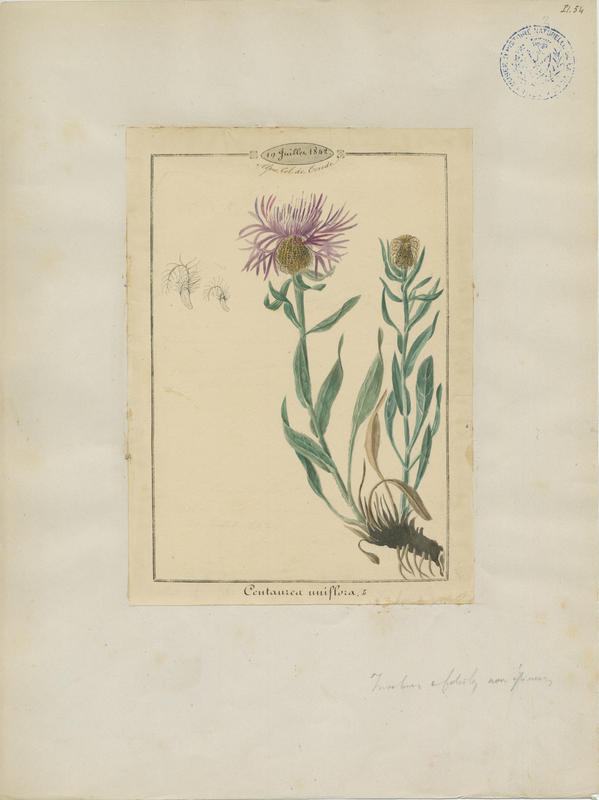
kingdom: Plantae
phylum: Tracheophyta
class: Magnoliopsida
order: Asterales
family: Asteraceae
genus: Centaurea
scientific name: Centaurea uniflora
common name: Singleflower knapweed
